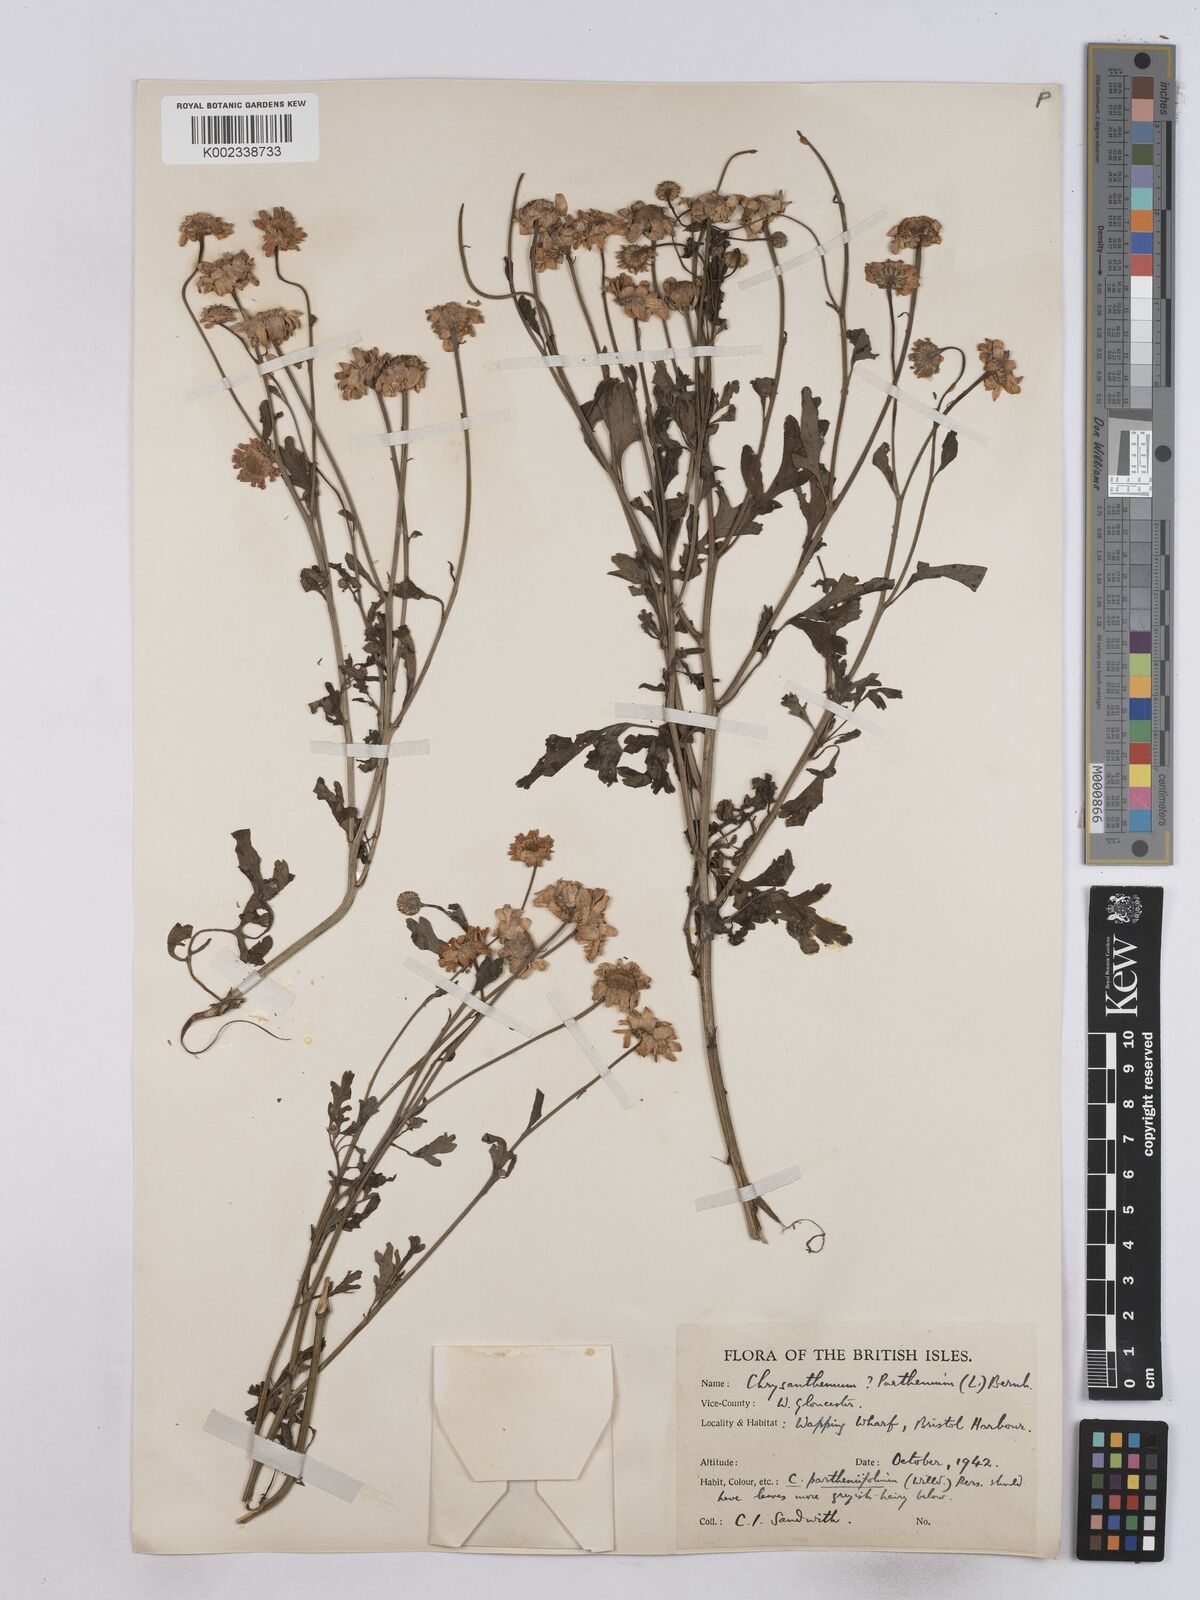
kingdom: Plantae
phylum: Tracheophyta
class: Magnoliopsida
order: Asterales
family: Asteraceae
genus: Tanacetum
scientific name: Tanacetum parthenium
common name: Feverfew
